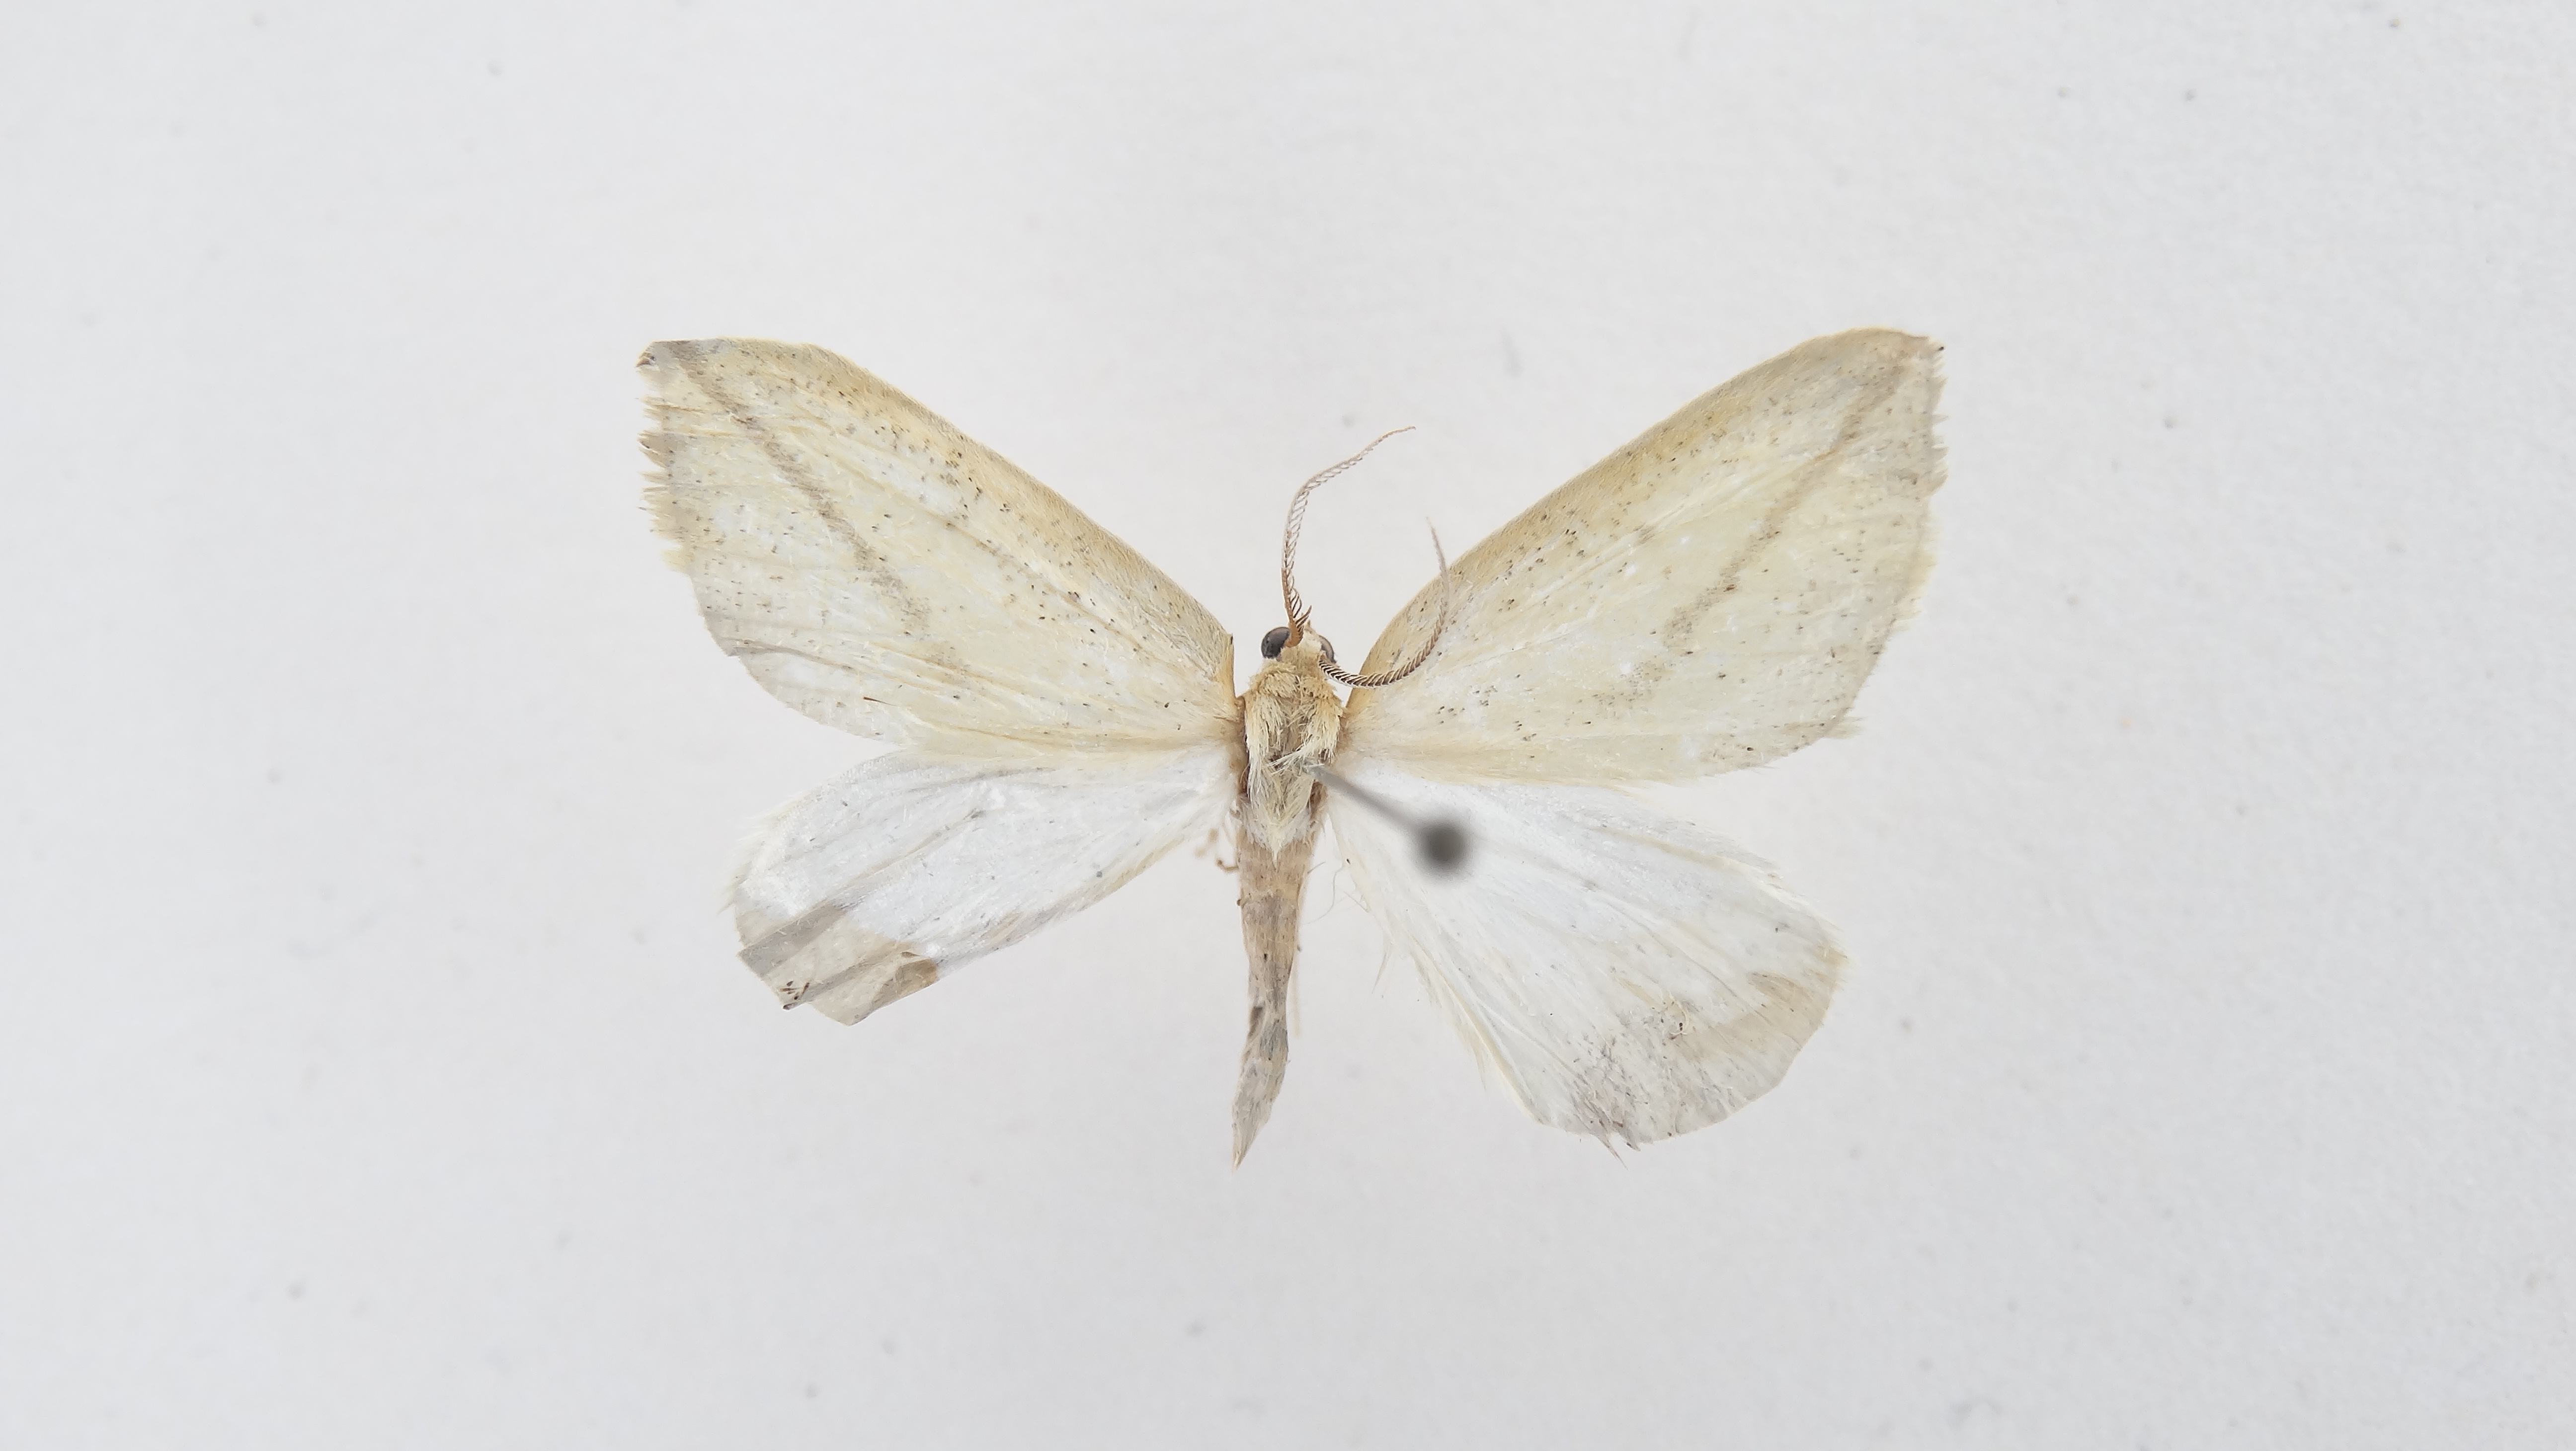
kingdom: Animalia
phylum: Arthropoda
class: Insecta
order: Lepidoptera
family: Geometridae
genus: Perusia
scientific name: Perusia lacticinia
